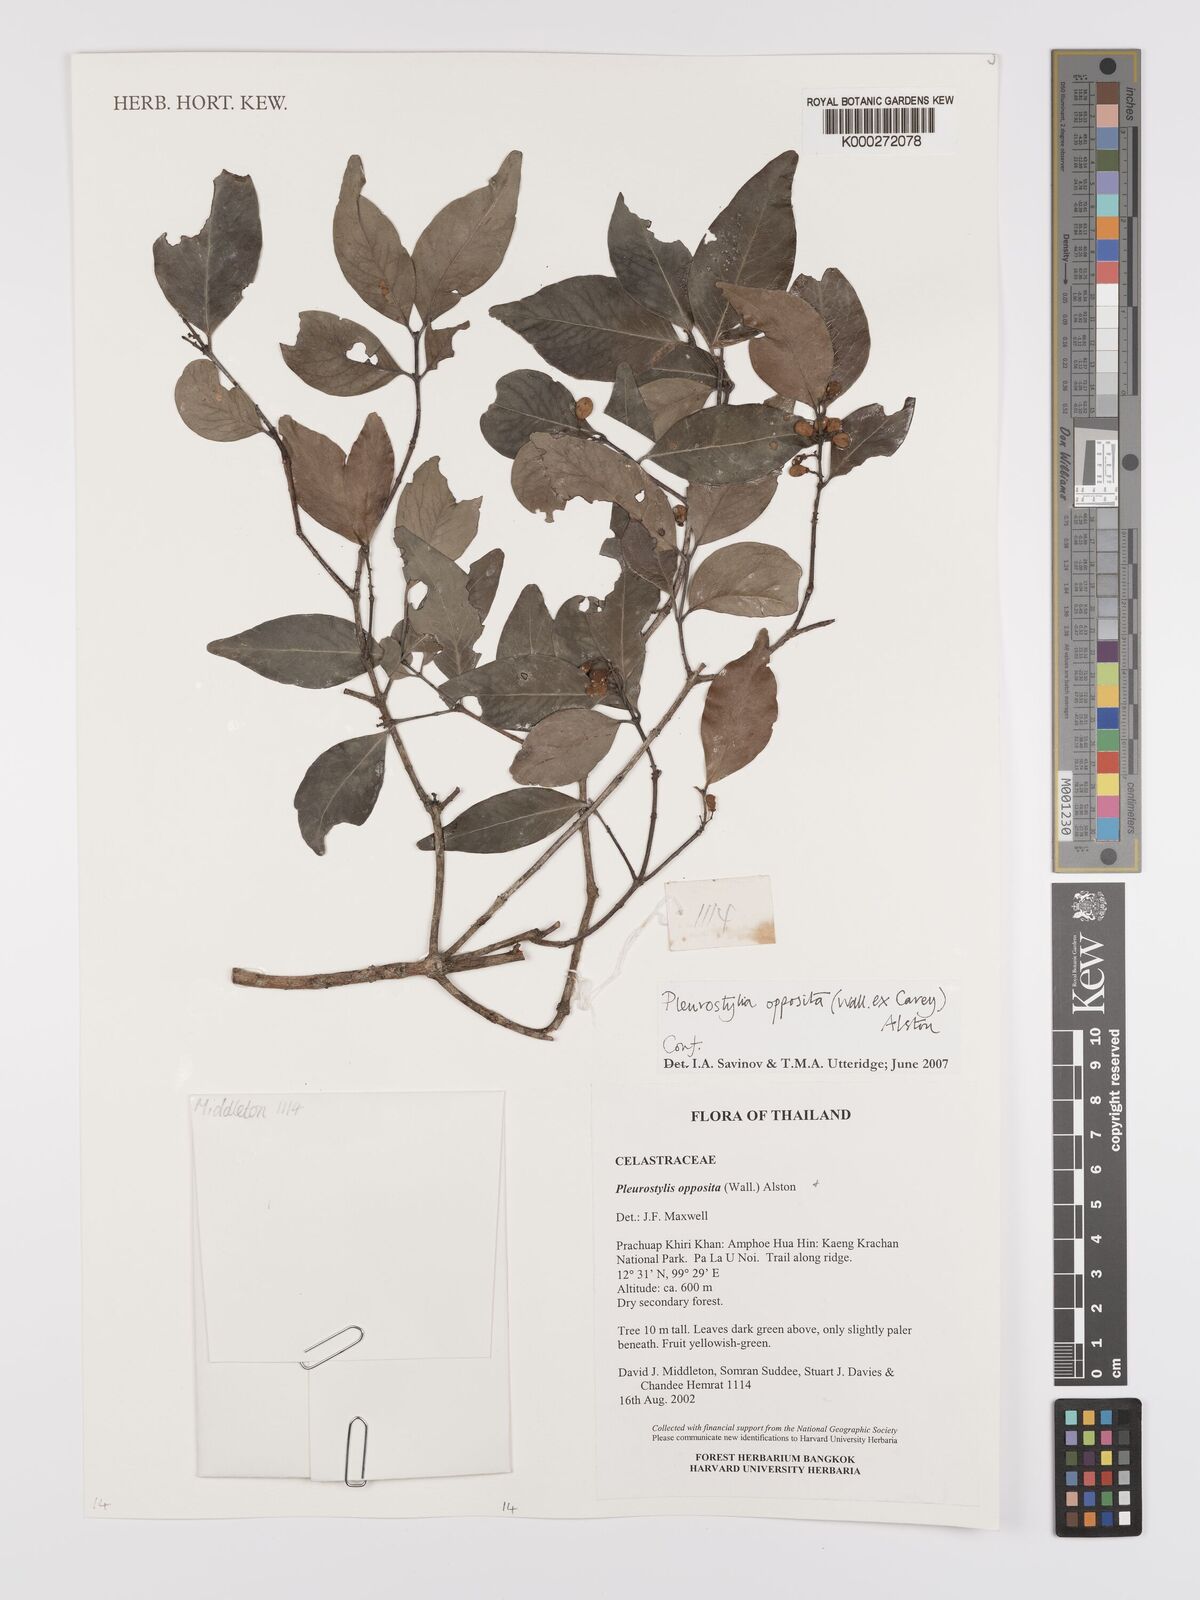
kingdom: Plantae
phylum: Tracheophyta
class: Magnoliopsida
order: Celastrales
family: Celastraceae
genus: Pleurostylia
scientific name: Pleurostylia opposita
